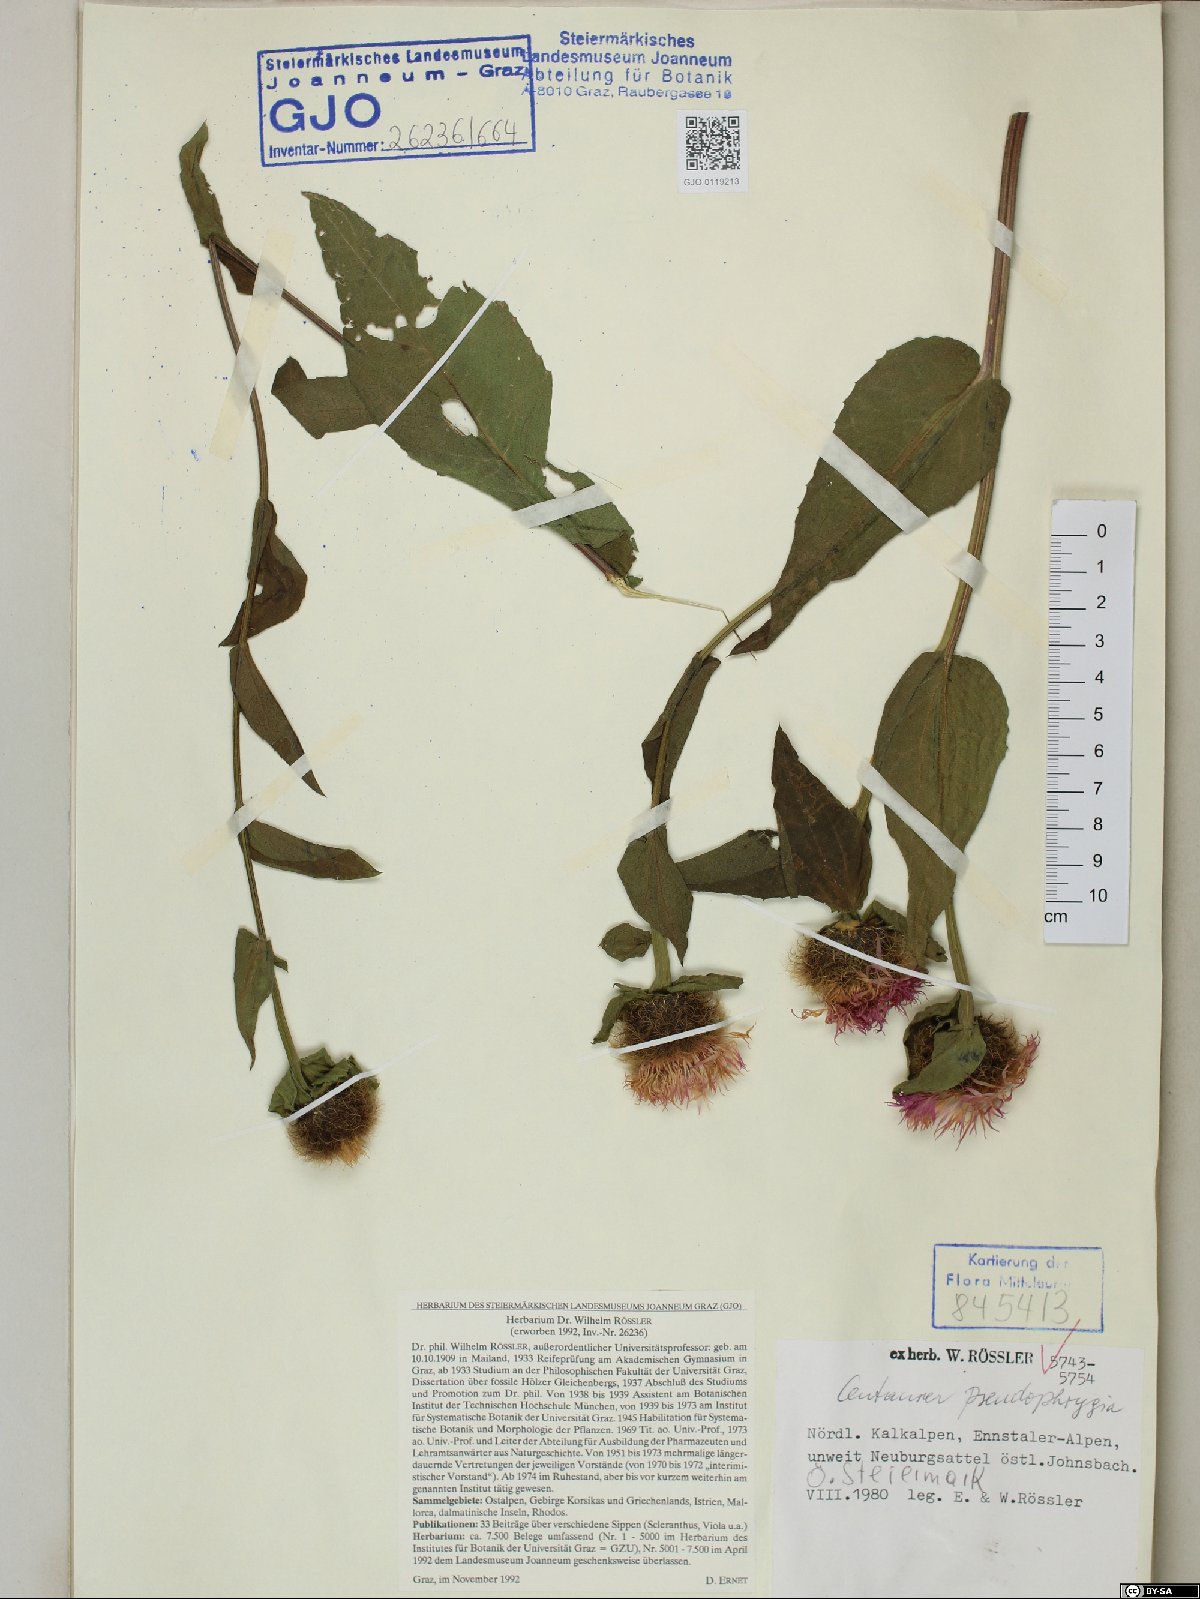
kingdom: Plantae
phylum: Tracheophyta
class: Magnoliopsida
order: Asterales
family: Asteraceae
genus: Centaurea
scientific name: Centaurea pseudophrygia
